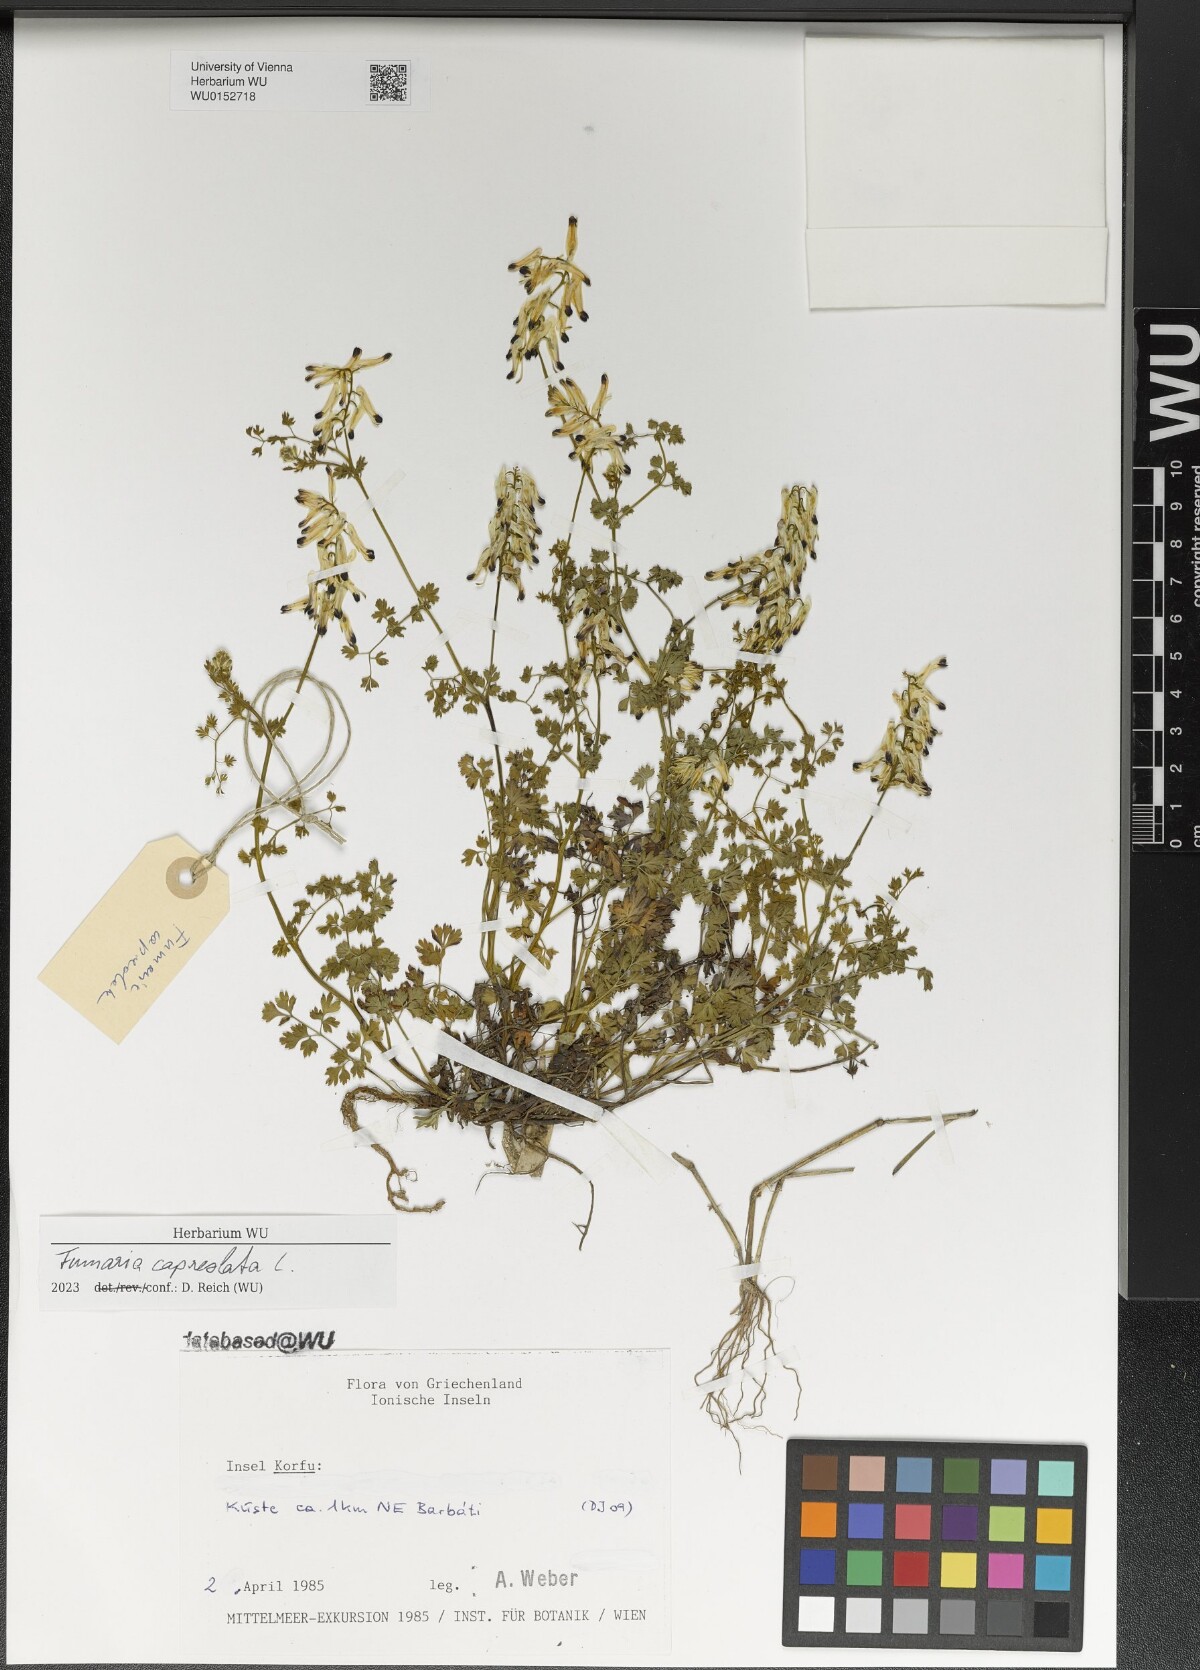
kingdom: Plantae
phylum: Tracheophyta
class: Magnoliopsida
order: Ranunculales
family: Papaveraceae
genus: Fumaria
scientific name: Fumaria capreolata
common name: White ramping-fumitory
